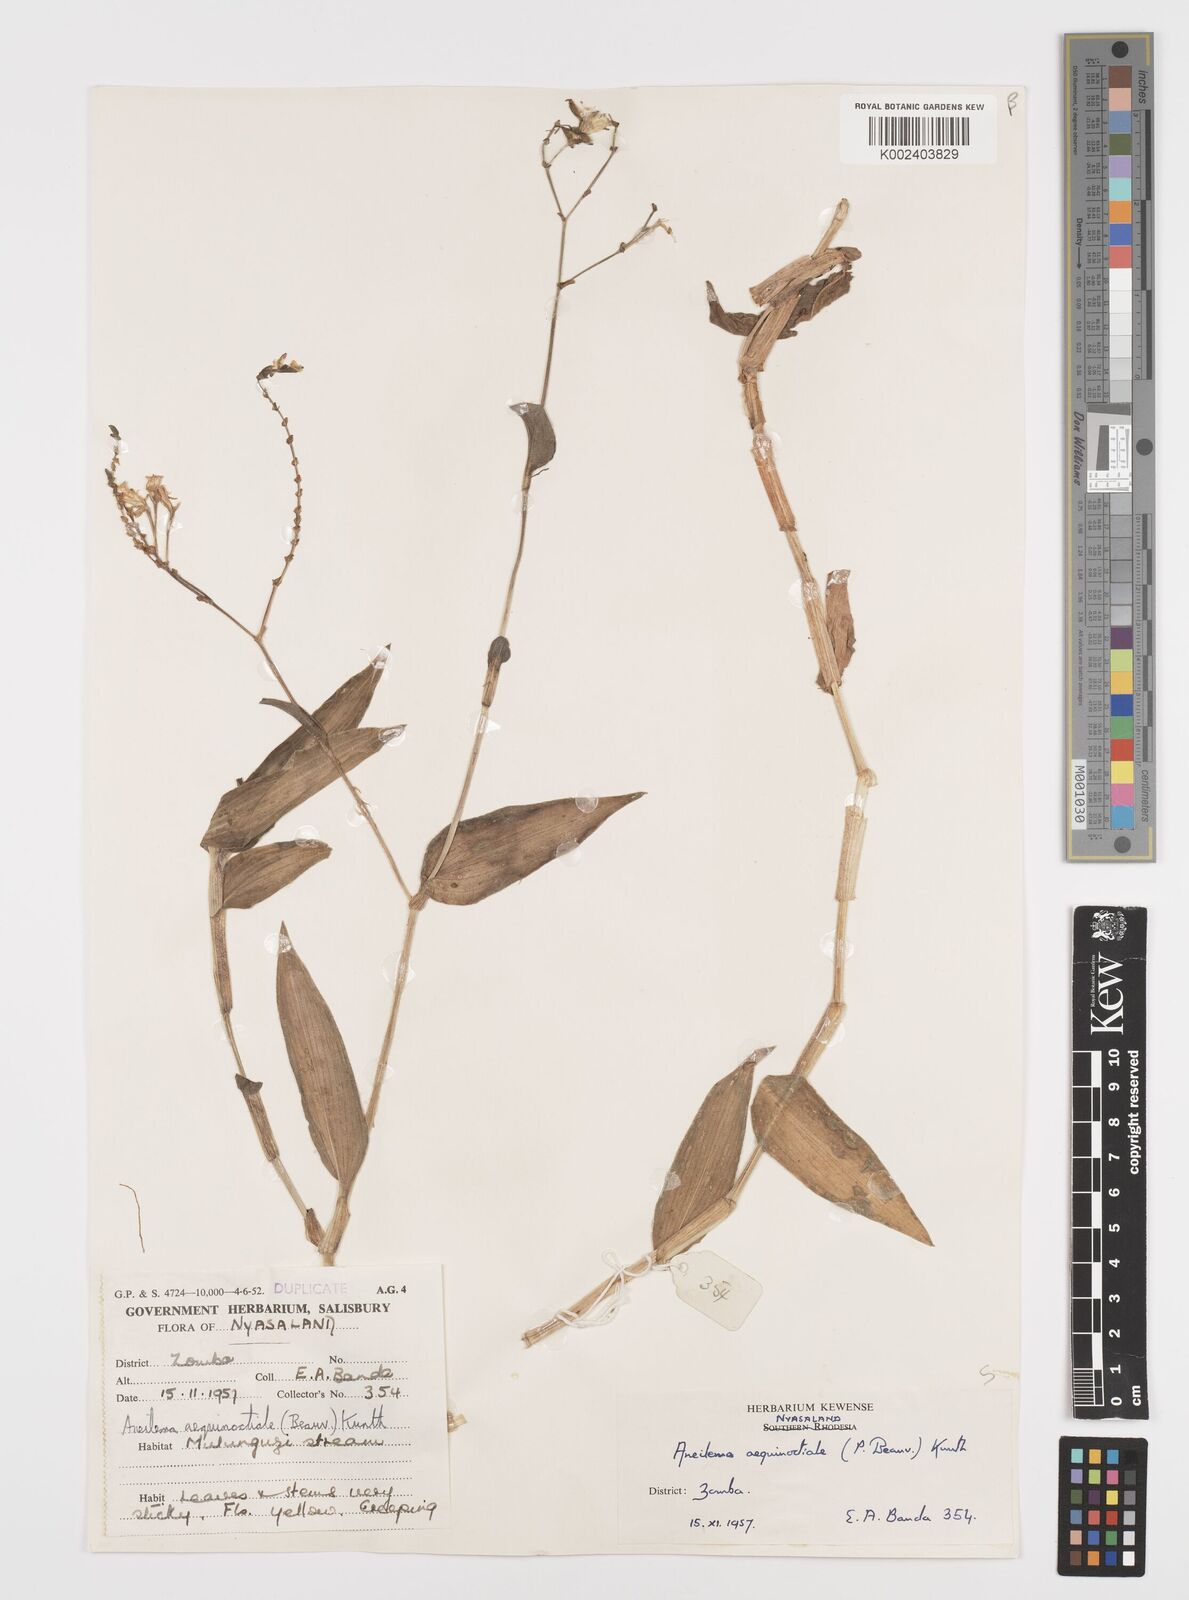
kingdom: Plantae
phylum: Tracheophyta
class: Liliopsida
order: Commelinales
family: Commelinaceae
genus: Aneilema
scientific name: Aneilema aequinoctiale
